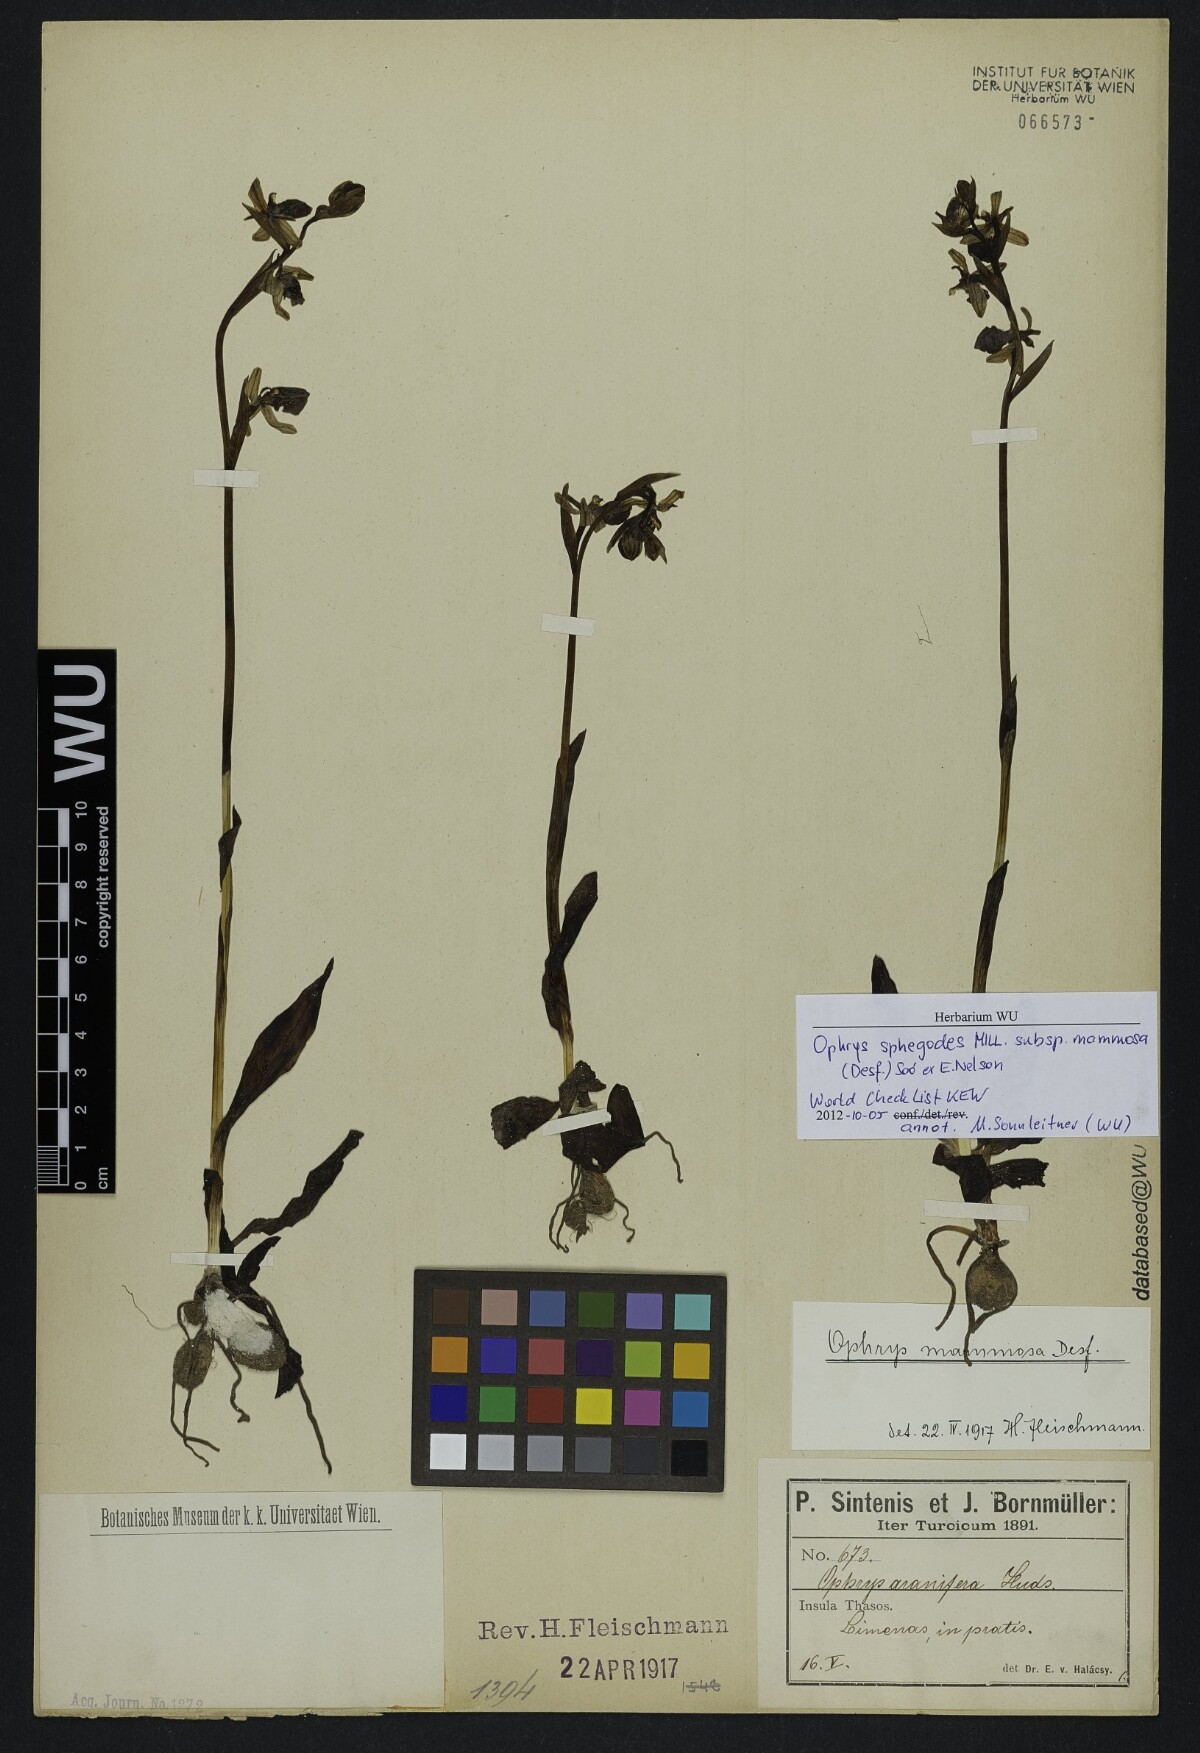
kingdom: Plantae
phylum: Tracheophyta
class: Liliopsida
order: Asparagales
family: Orchidaceae
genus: Ophrys
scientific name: Ophrys sphegodes
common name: Early spider-orchid
